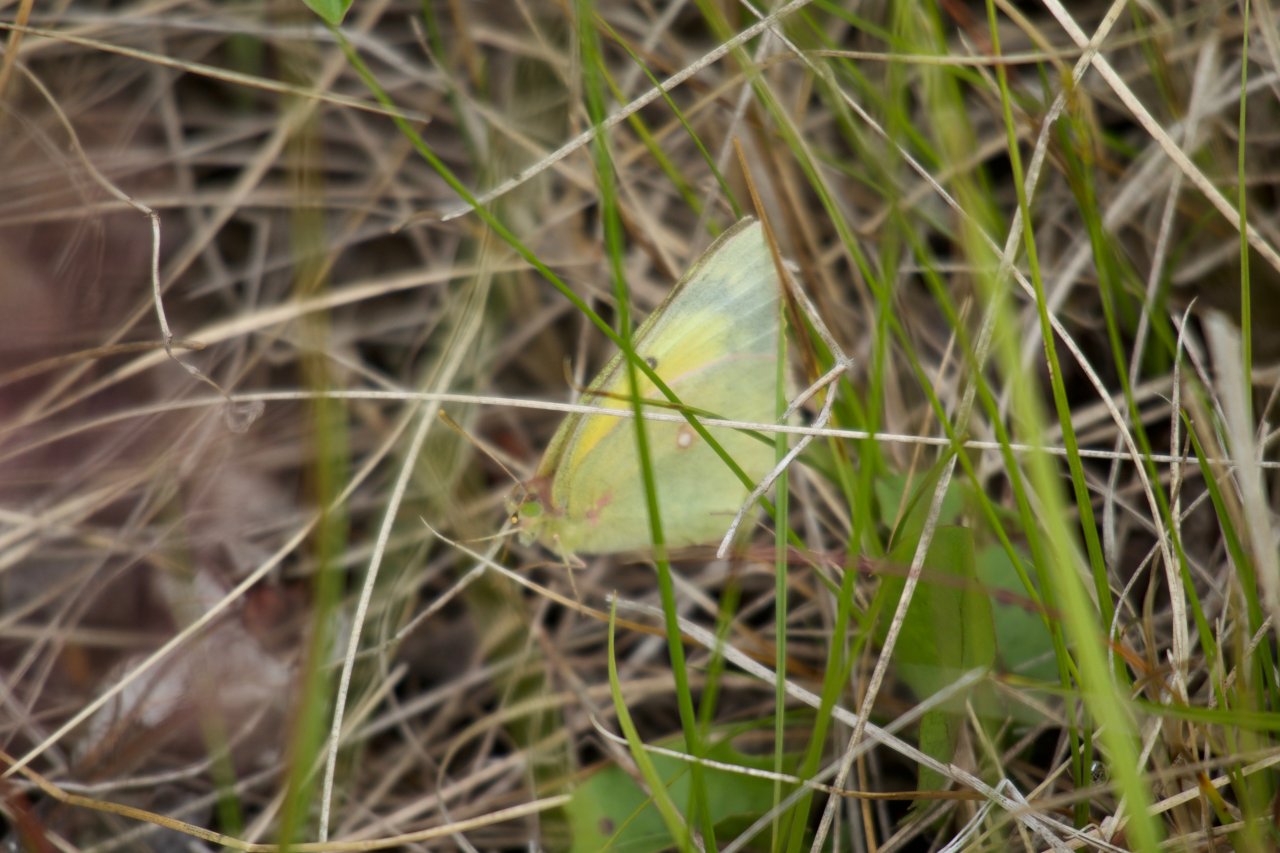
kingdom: Animalia
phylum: Arthropoda
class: Insecta
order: Lepidoptera
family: Pieridae
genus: Colias
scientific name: Colias philodice
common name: Clouded Sulphur
